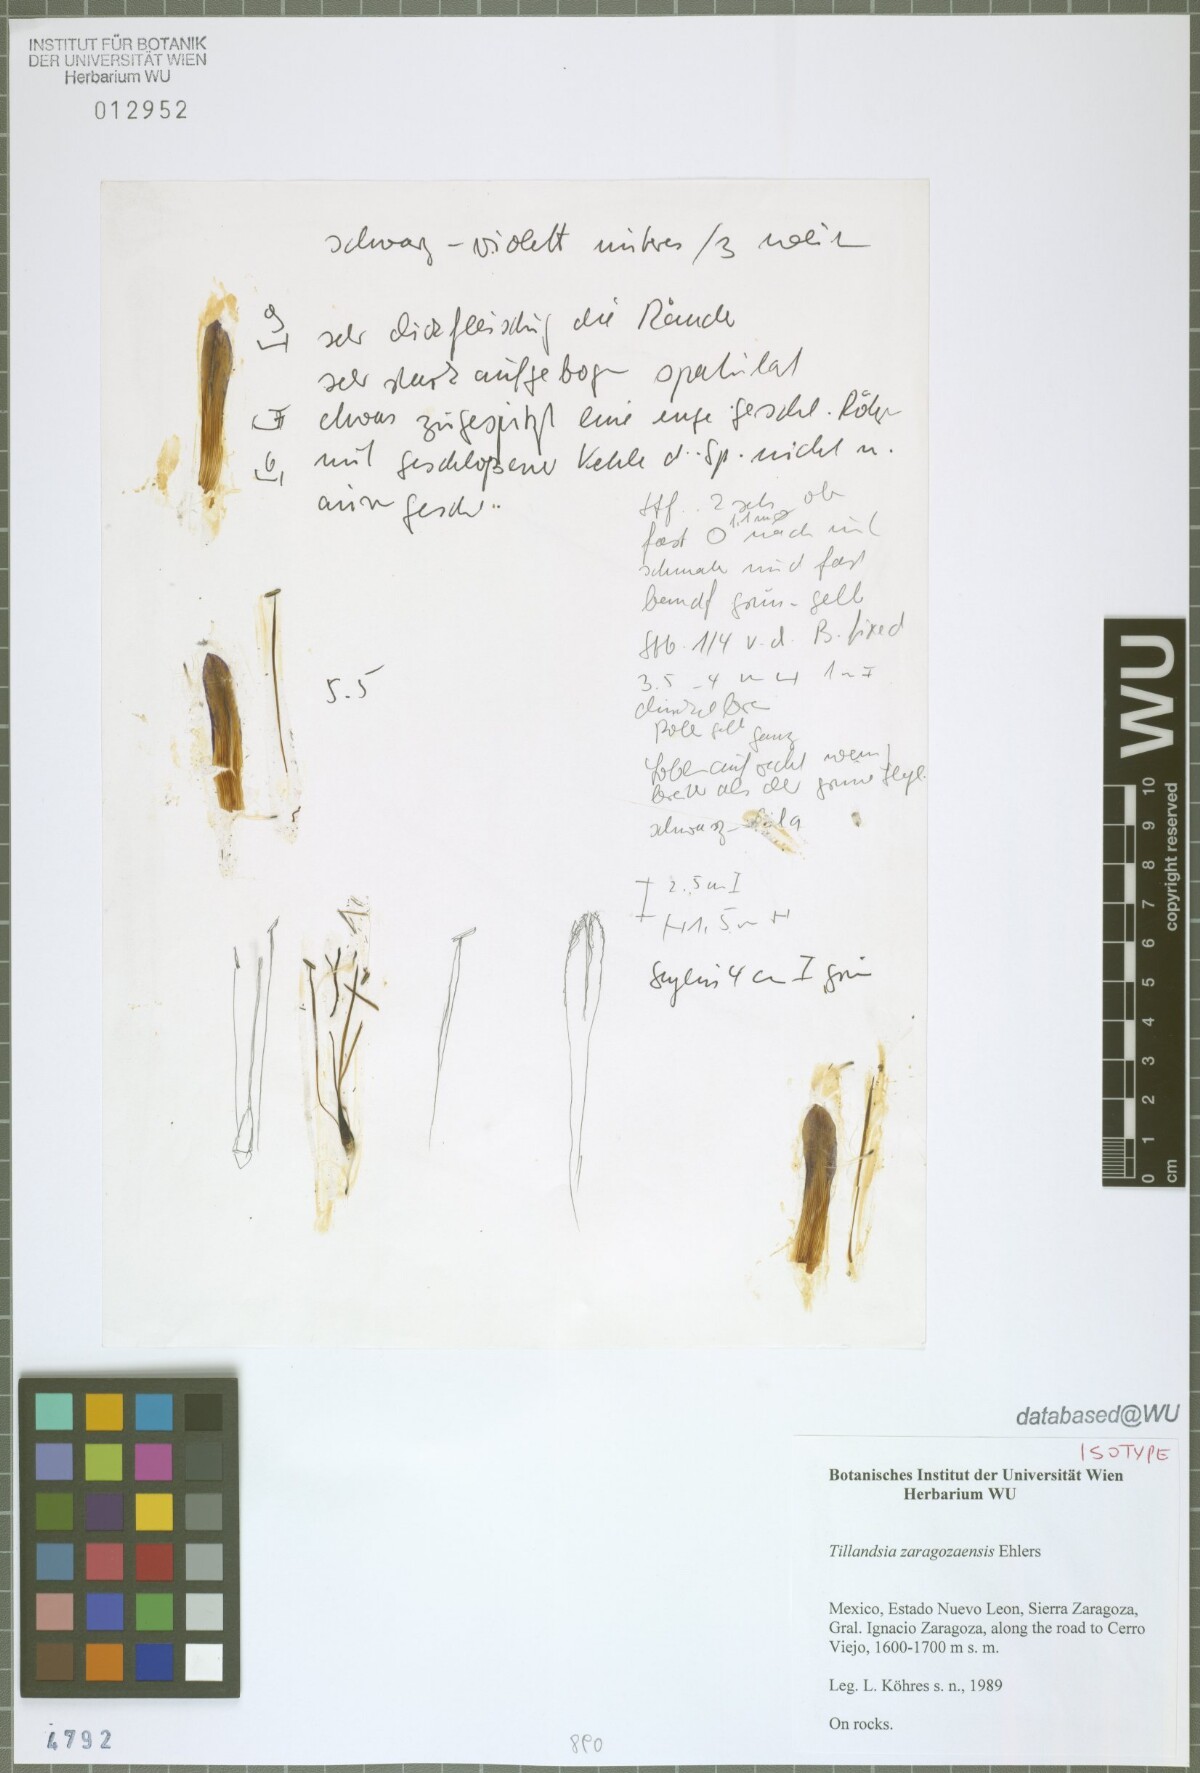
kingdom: Plantae
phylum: Tracheophyta
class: Liliopsida
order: Poales
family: Bromeliaceae
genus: Tillandsia
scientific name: Tillandsia zaragozaensis
